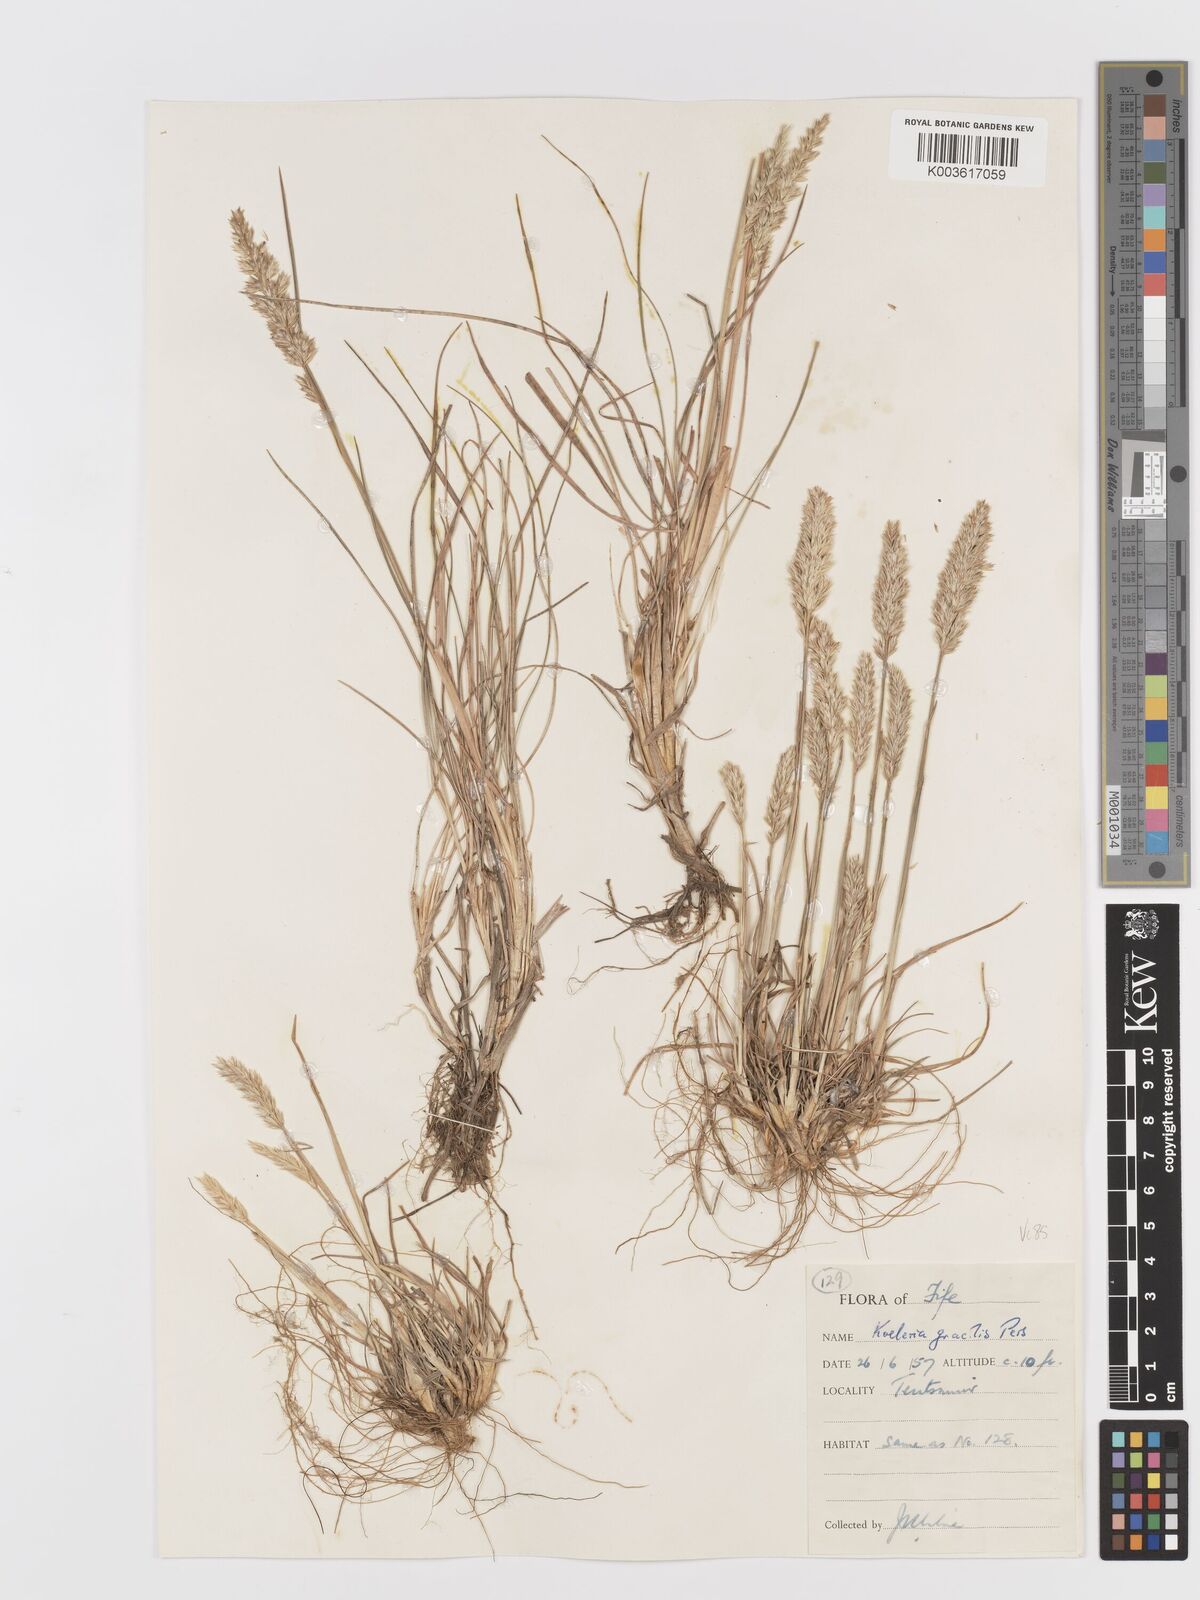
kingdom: Plantae
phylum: Tracheophyta
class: Liliopsida
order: Poales
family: Poaceae
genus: Koeleria
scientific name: Koeleria macrantha
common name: Crested hair-grass
